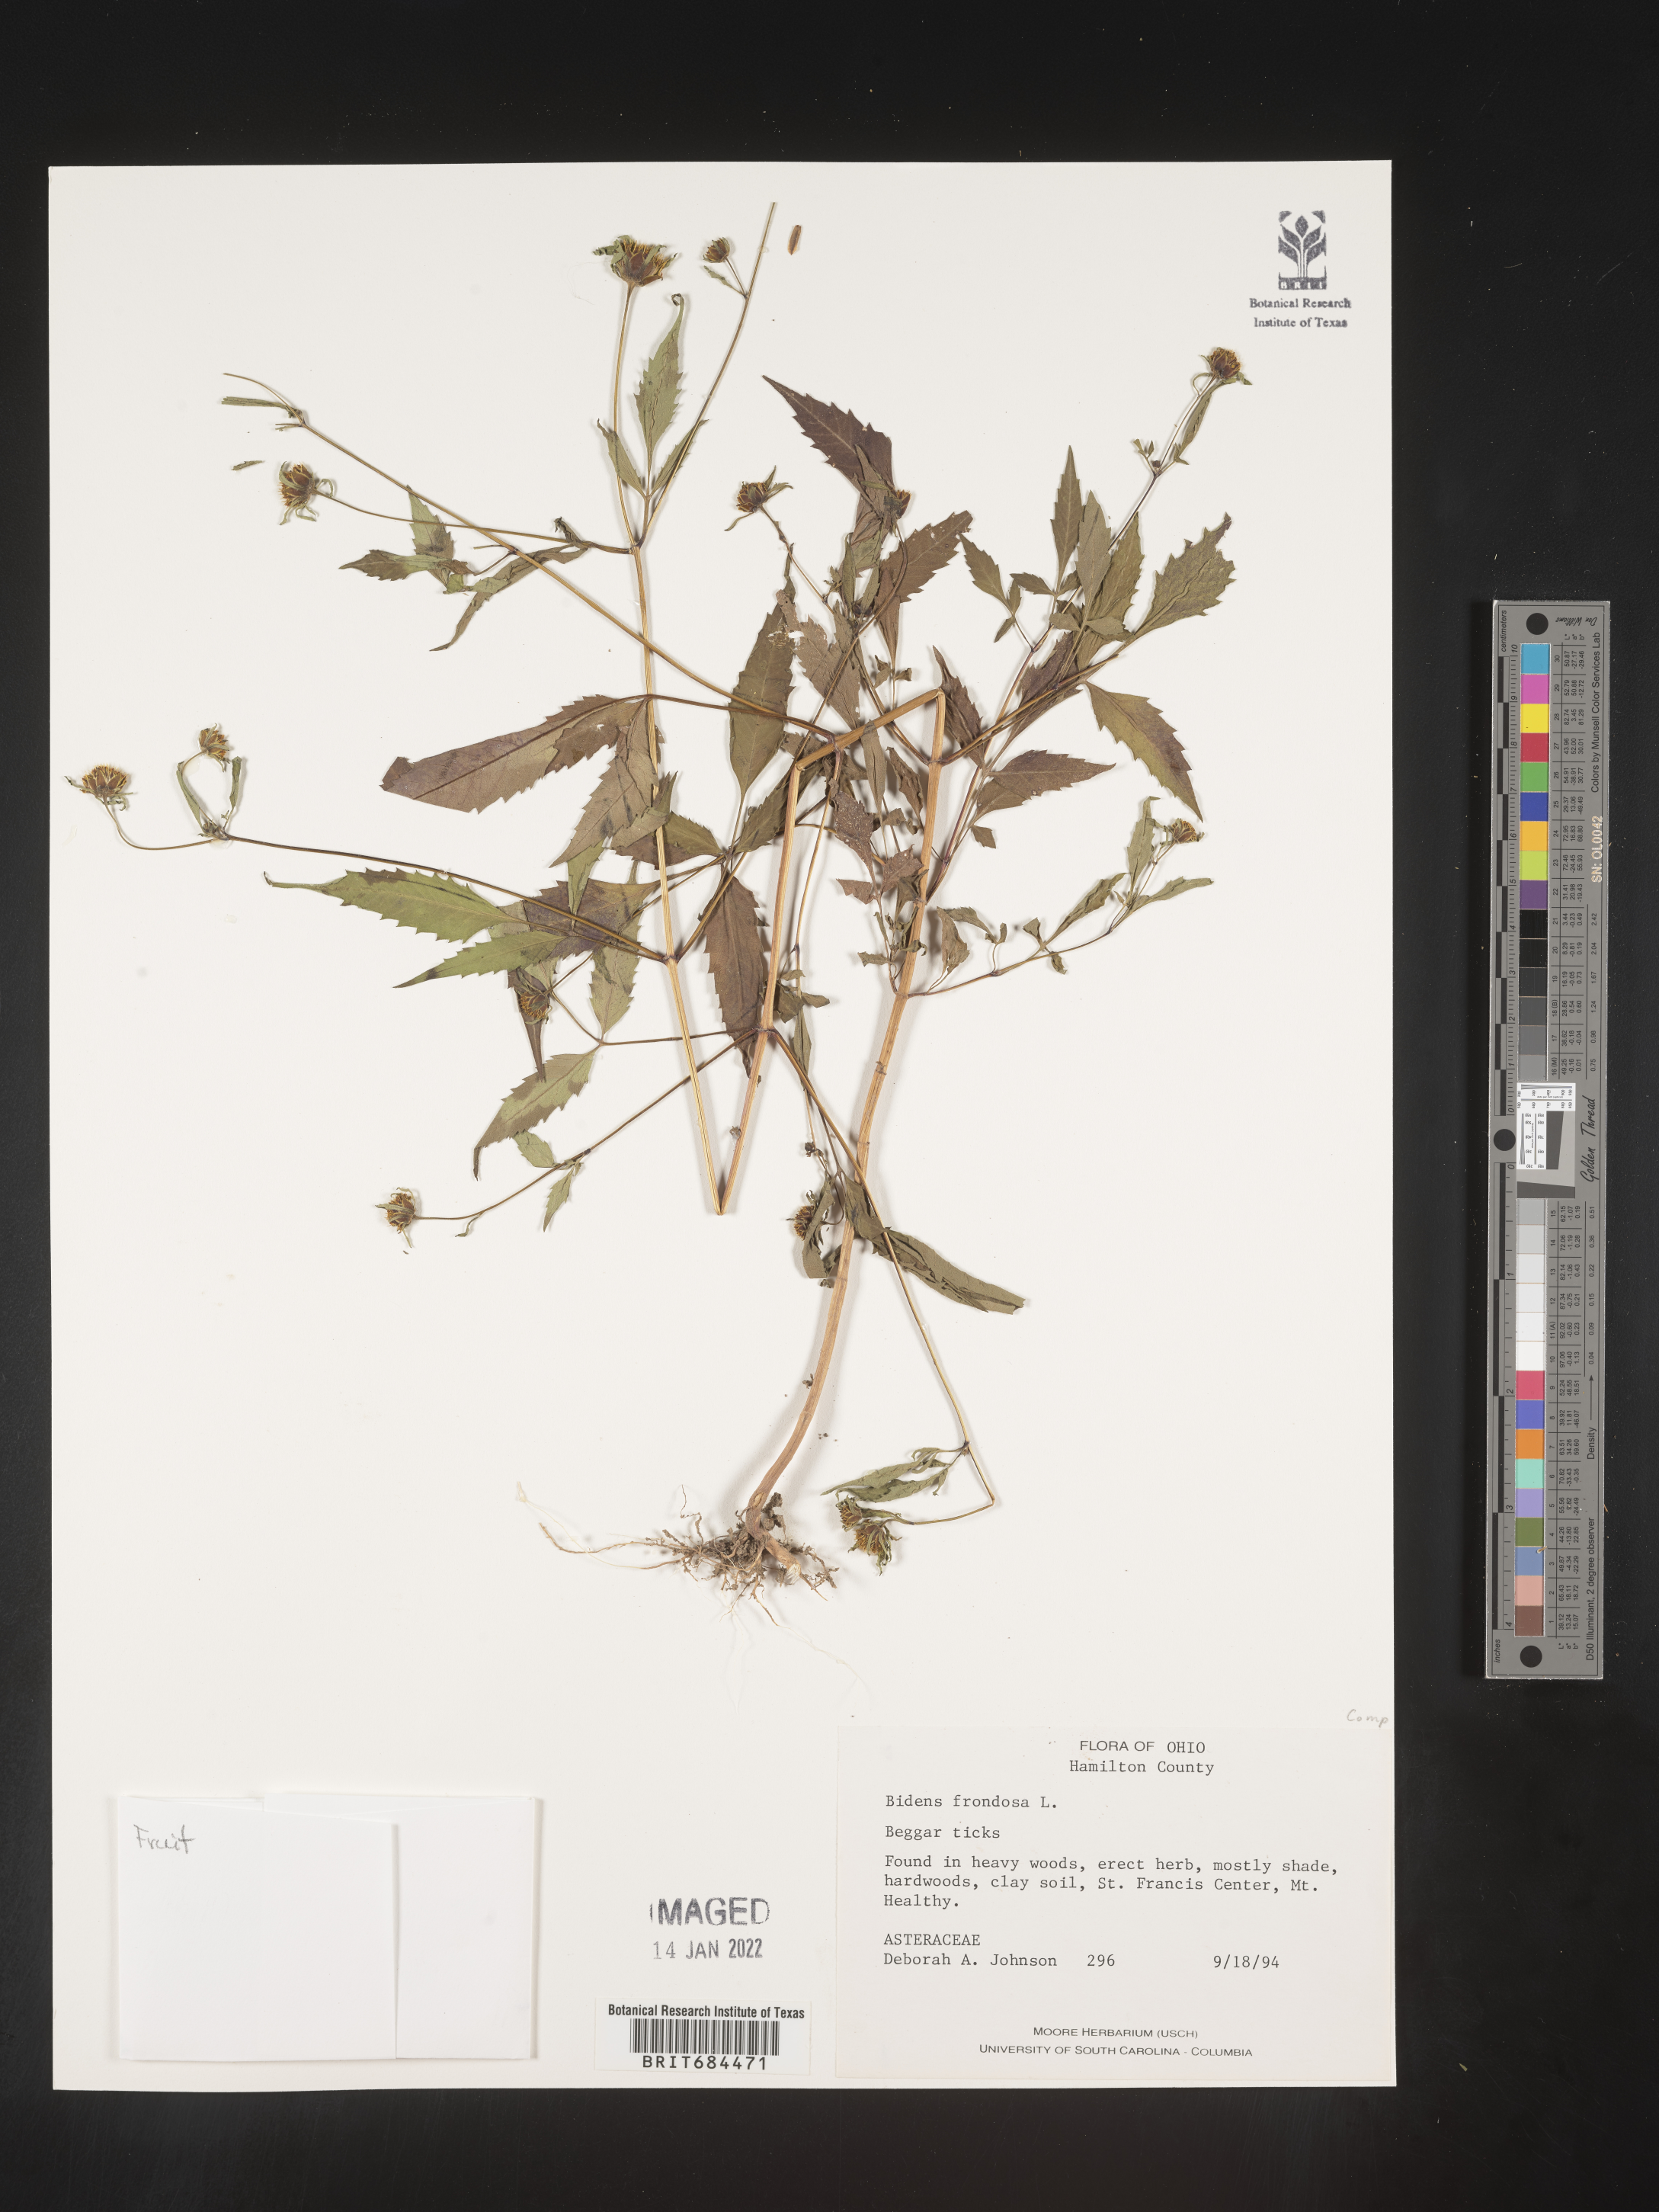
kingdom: Plantae
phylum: Tracheophyta
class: Magnoliopsida
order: Asterales
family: Asteraceae
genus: Bidens
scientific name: Bidens frondosa
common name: Beggarticks
